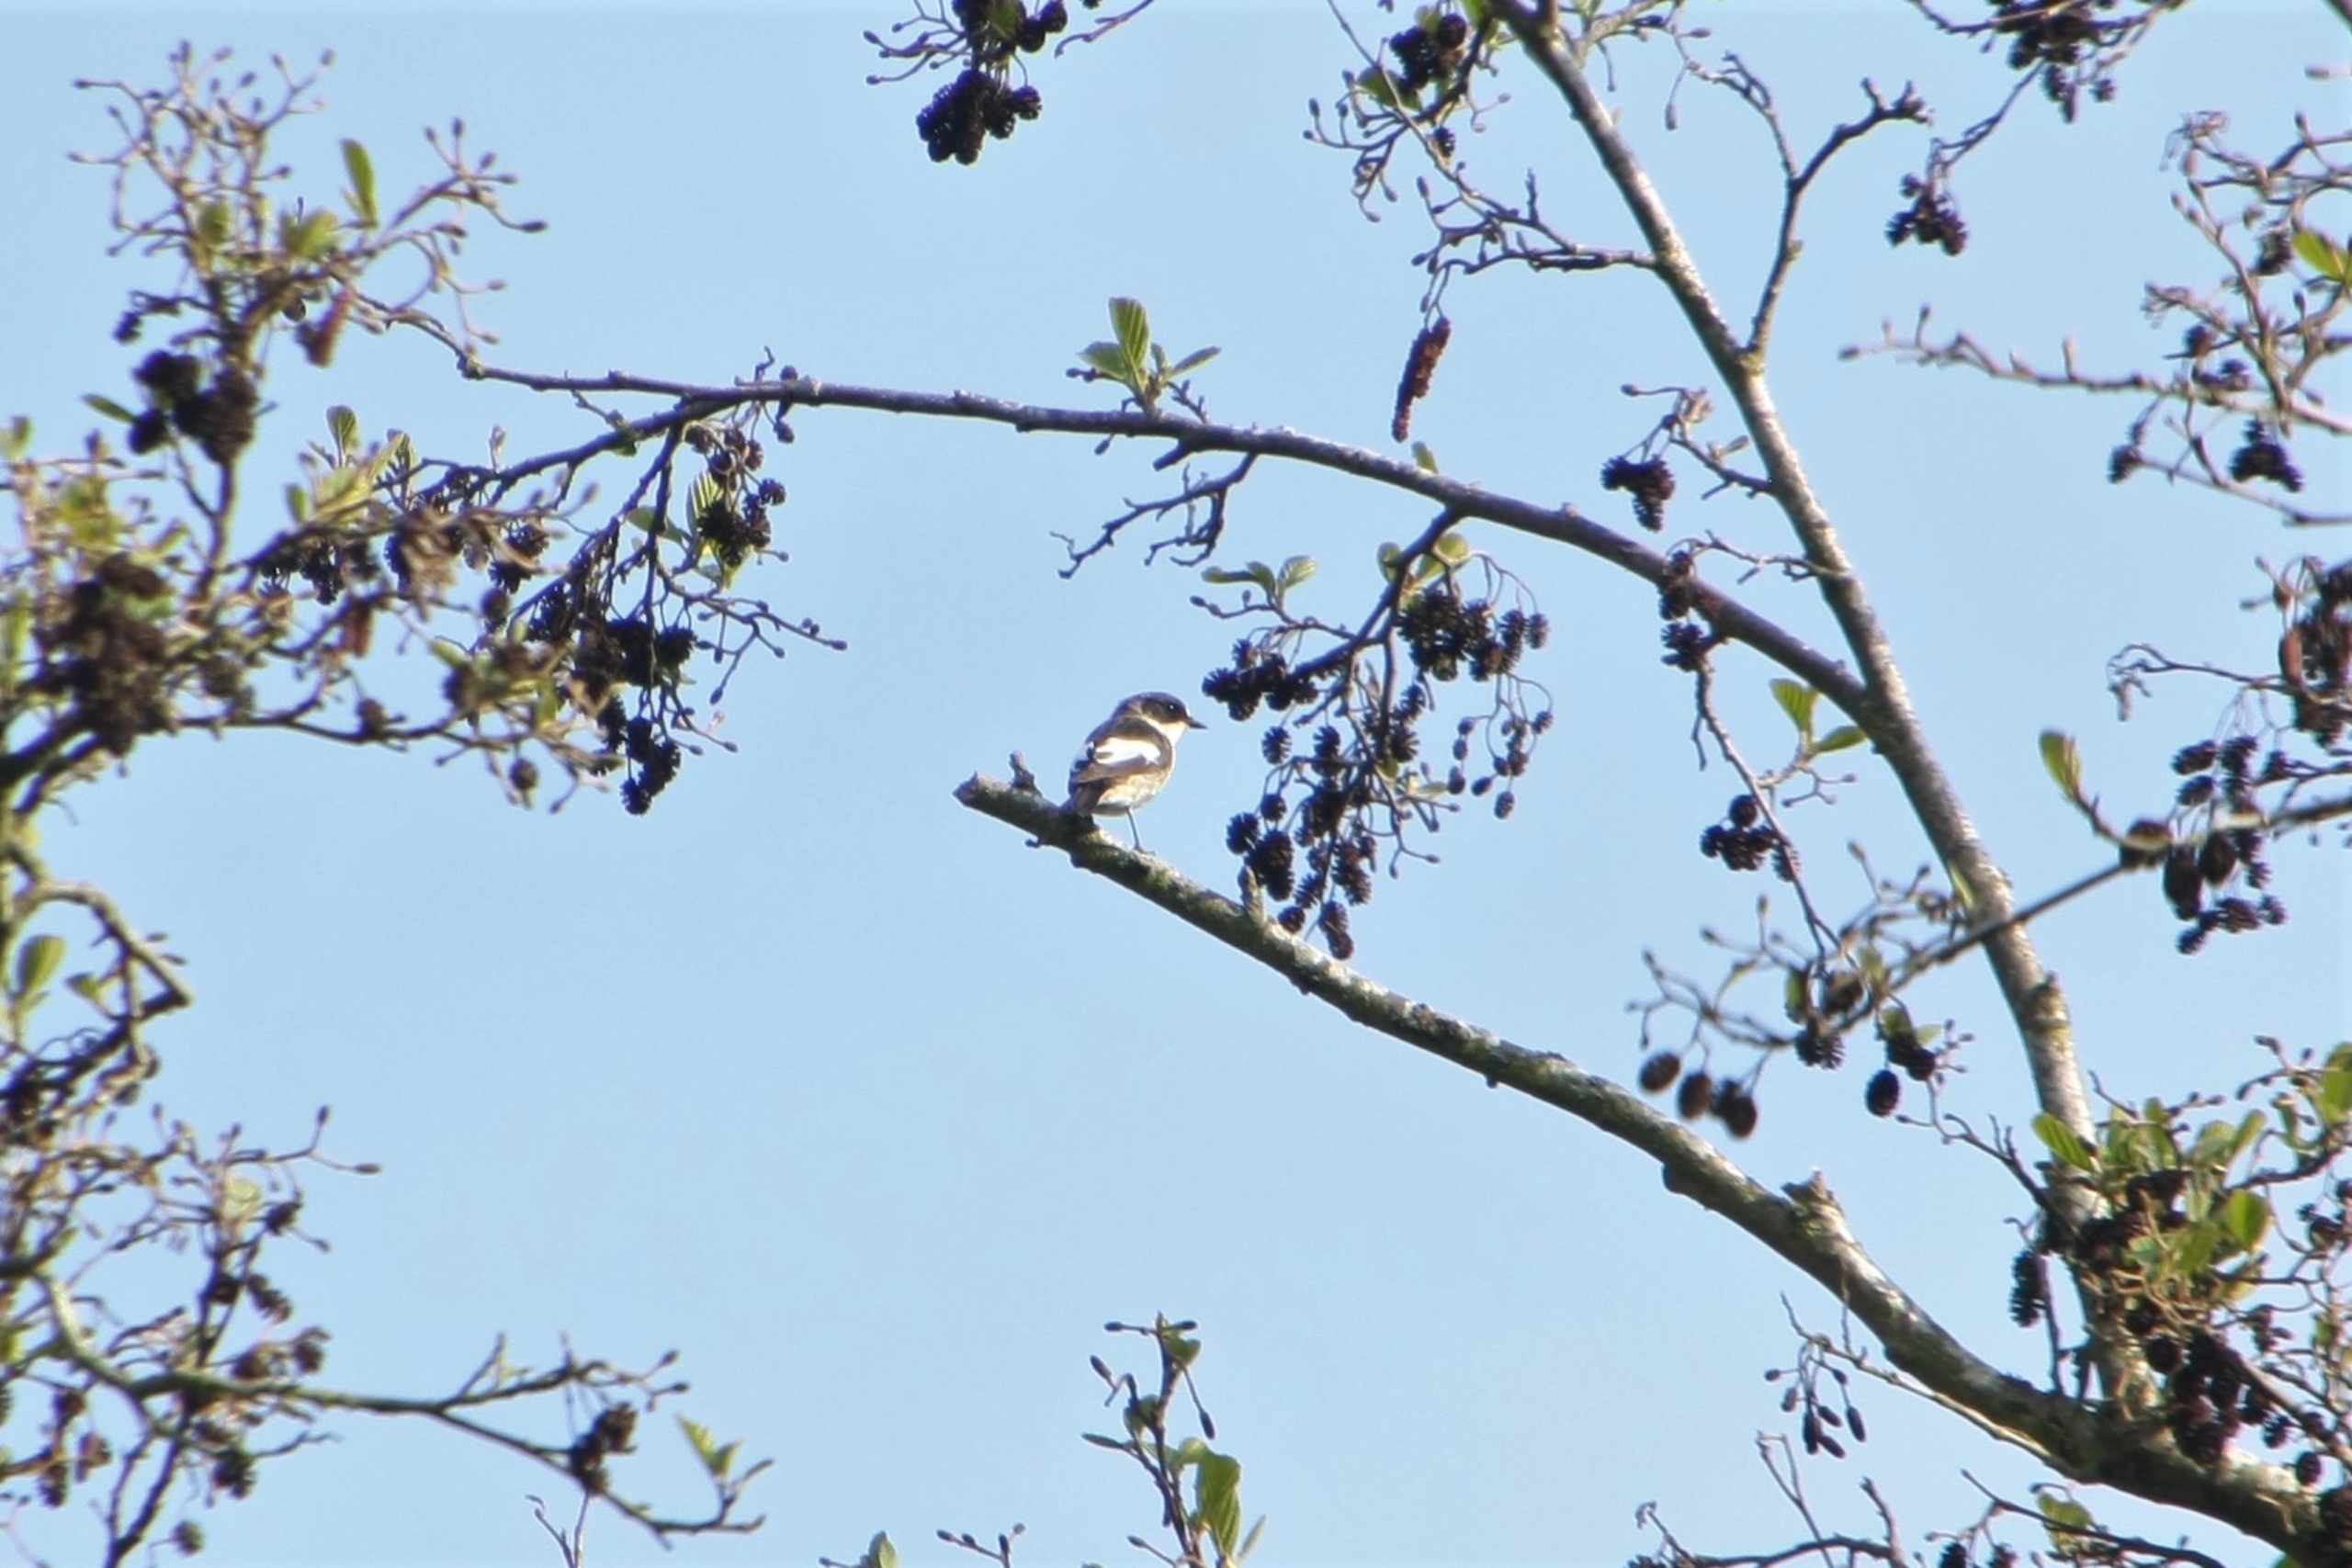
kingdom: Animalia
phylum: Chordata
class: Aves
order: Passeriformes
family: Muscicapidae
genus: Ficedula
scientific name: Ficedula hypoleuca
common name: Broget fluesnapper
